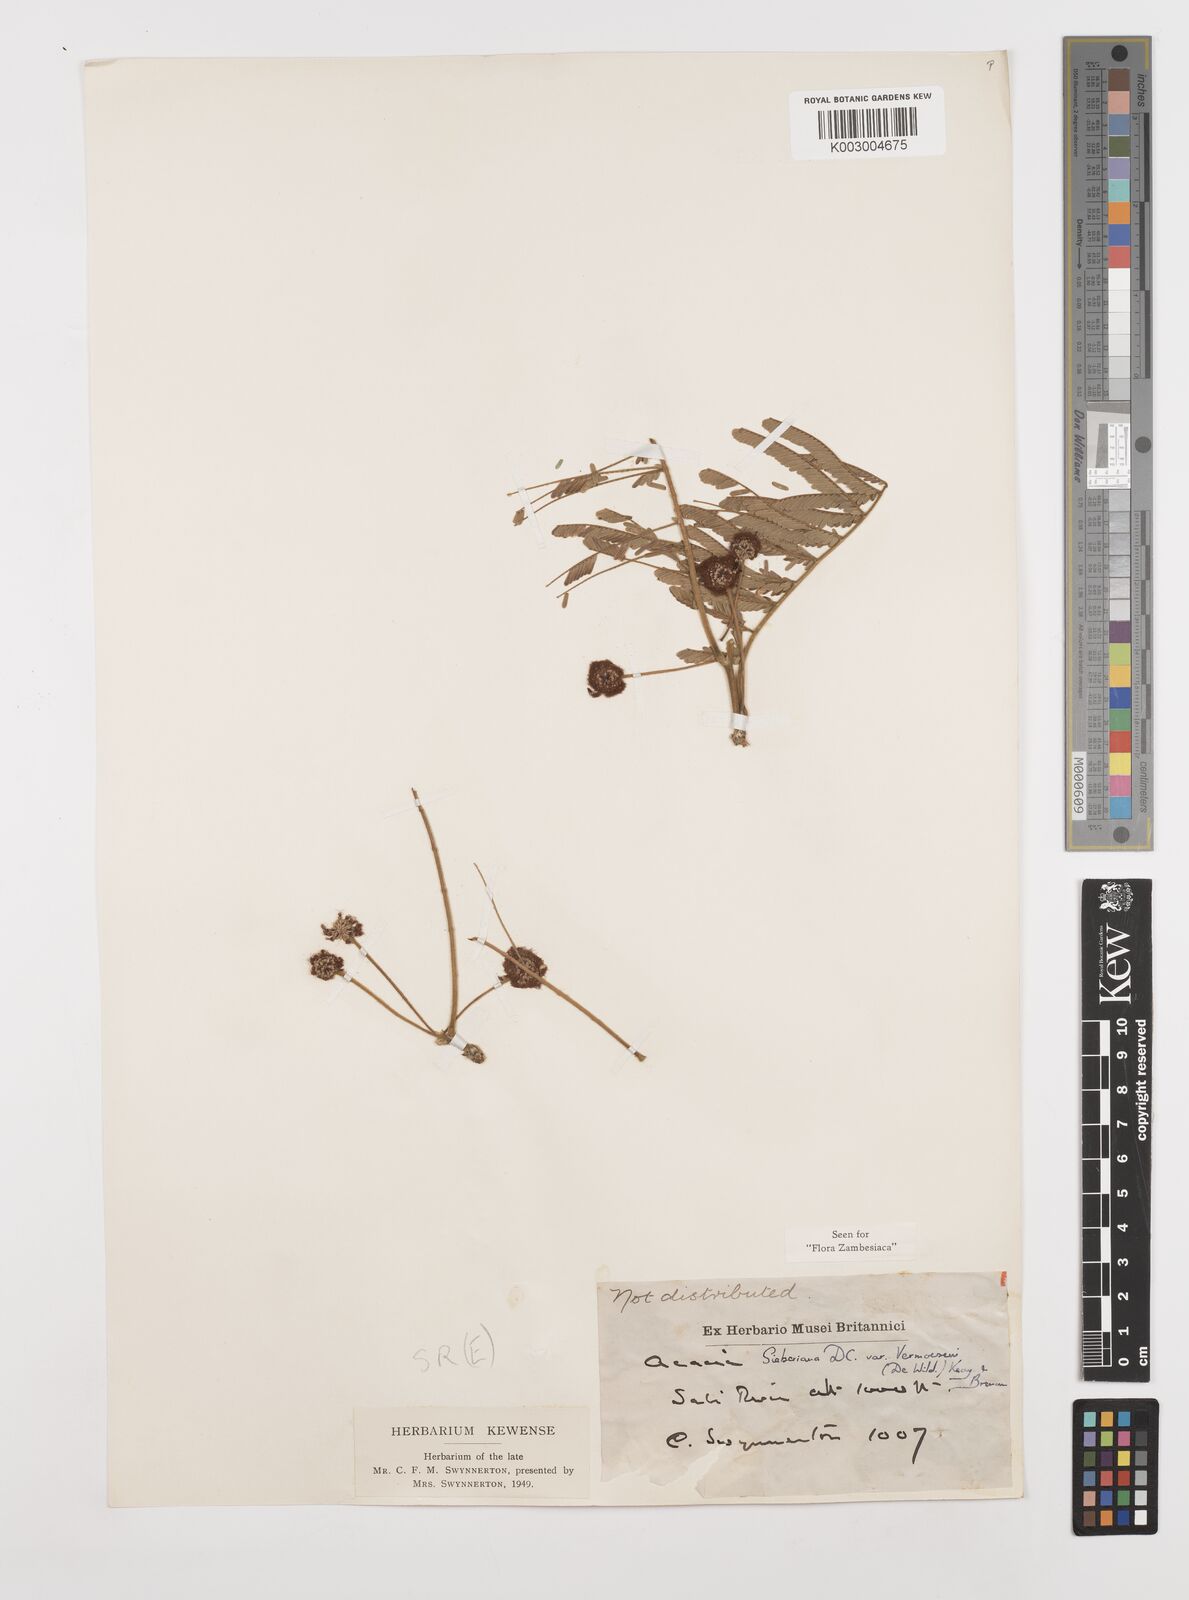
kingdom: Plantae
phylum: Tracheophyta
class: Magnoliopsida
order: Fabales
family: Fabaceae
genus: Vachellia
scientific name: Vachellia sieberiana
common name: Flat-topped thorn
